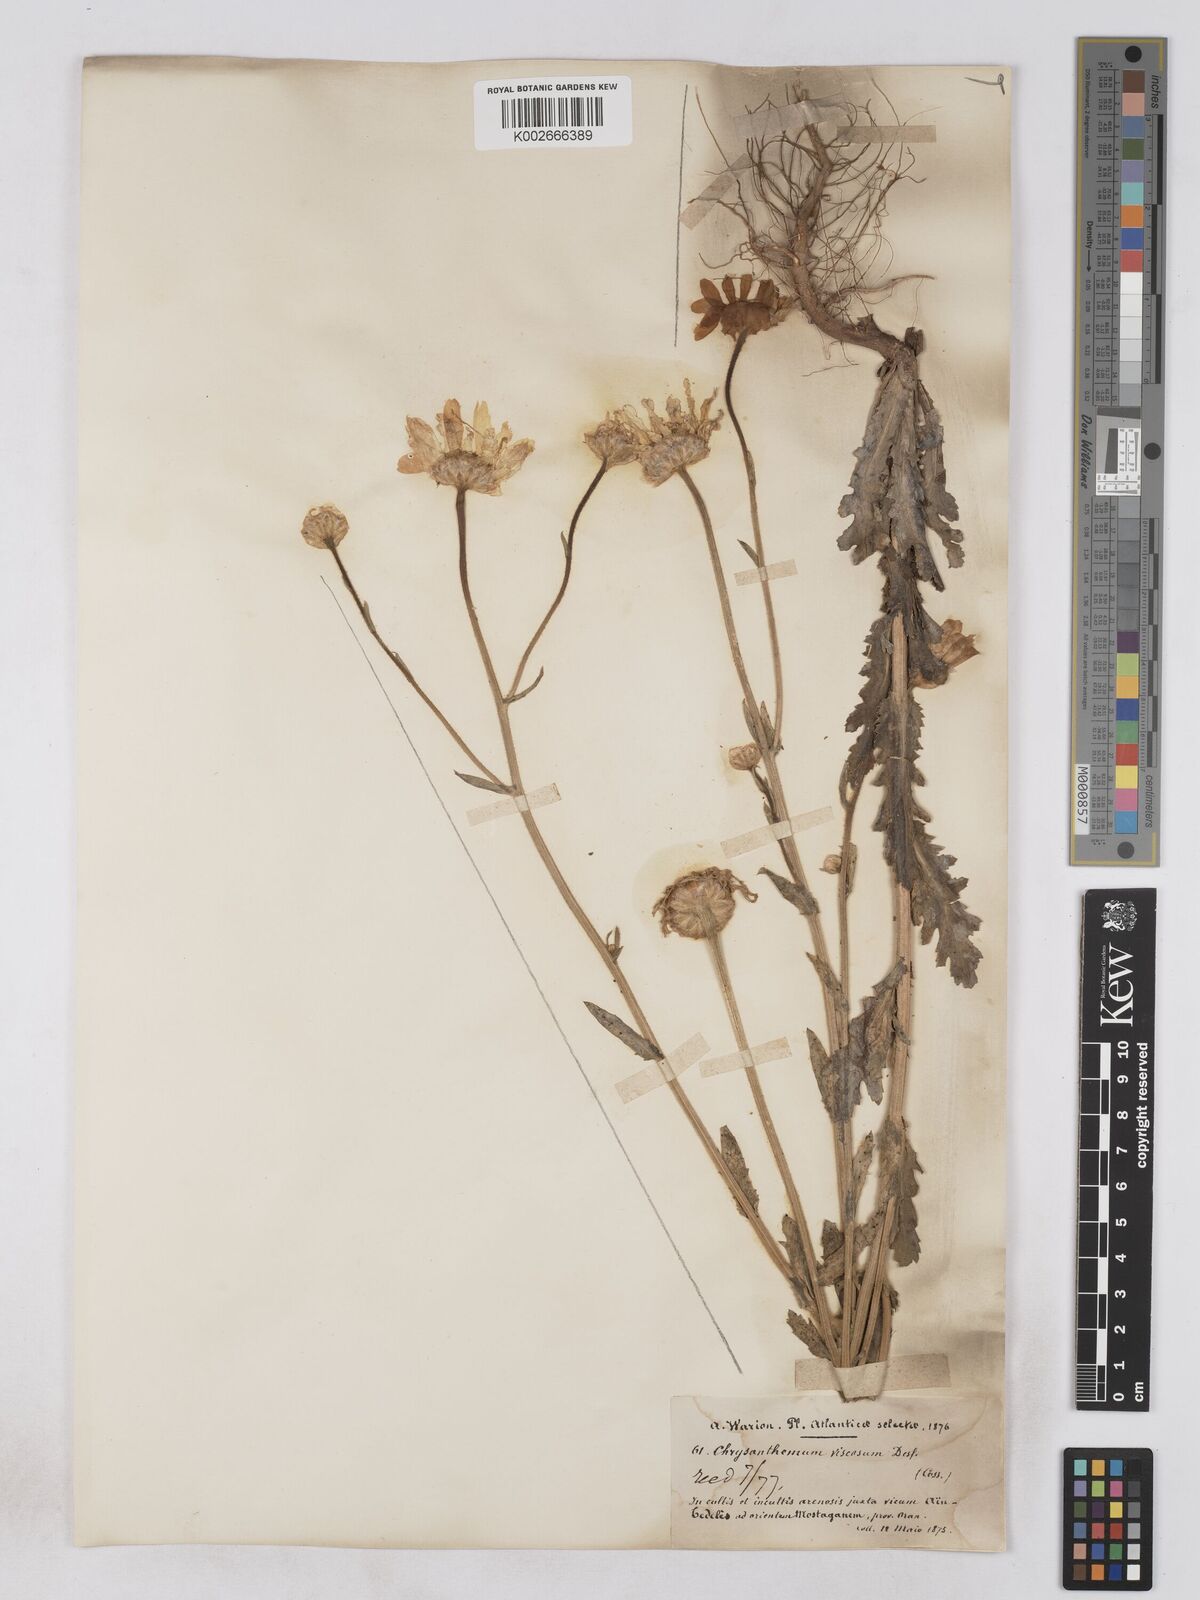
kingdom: Plantae
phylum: Tracheophyta
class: Magnoliopsida
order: Asterales
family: Asteraceae
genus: Heteranthemis
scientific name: Heteranthemis
